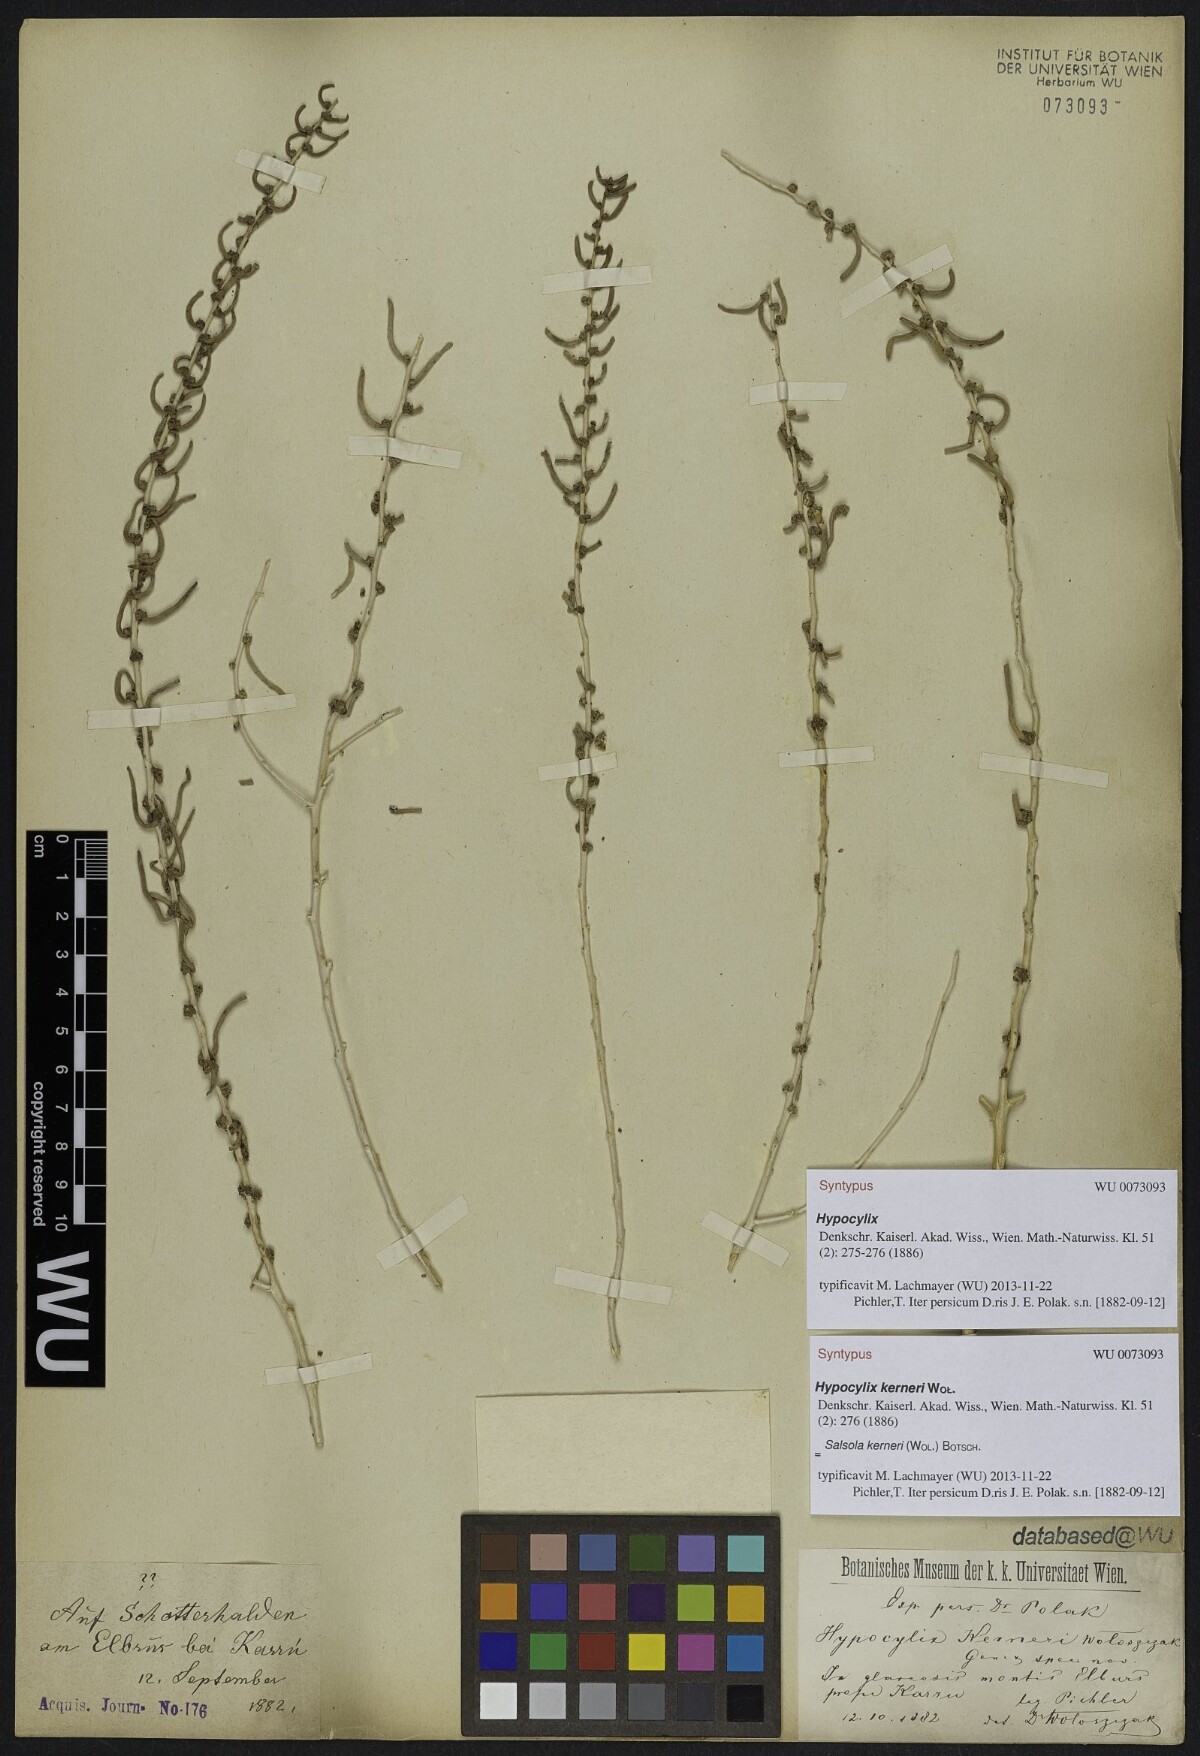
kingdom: Plantae
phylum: Tracheophyta
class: Magnoliopsida
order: Caryophyllales
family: Amaranthaceae
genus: Soda
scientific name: Soda kerneri
